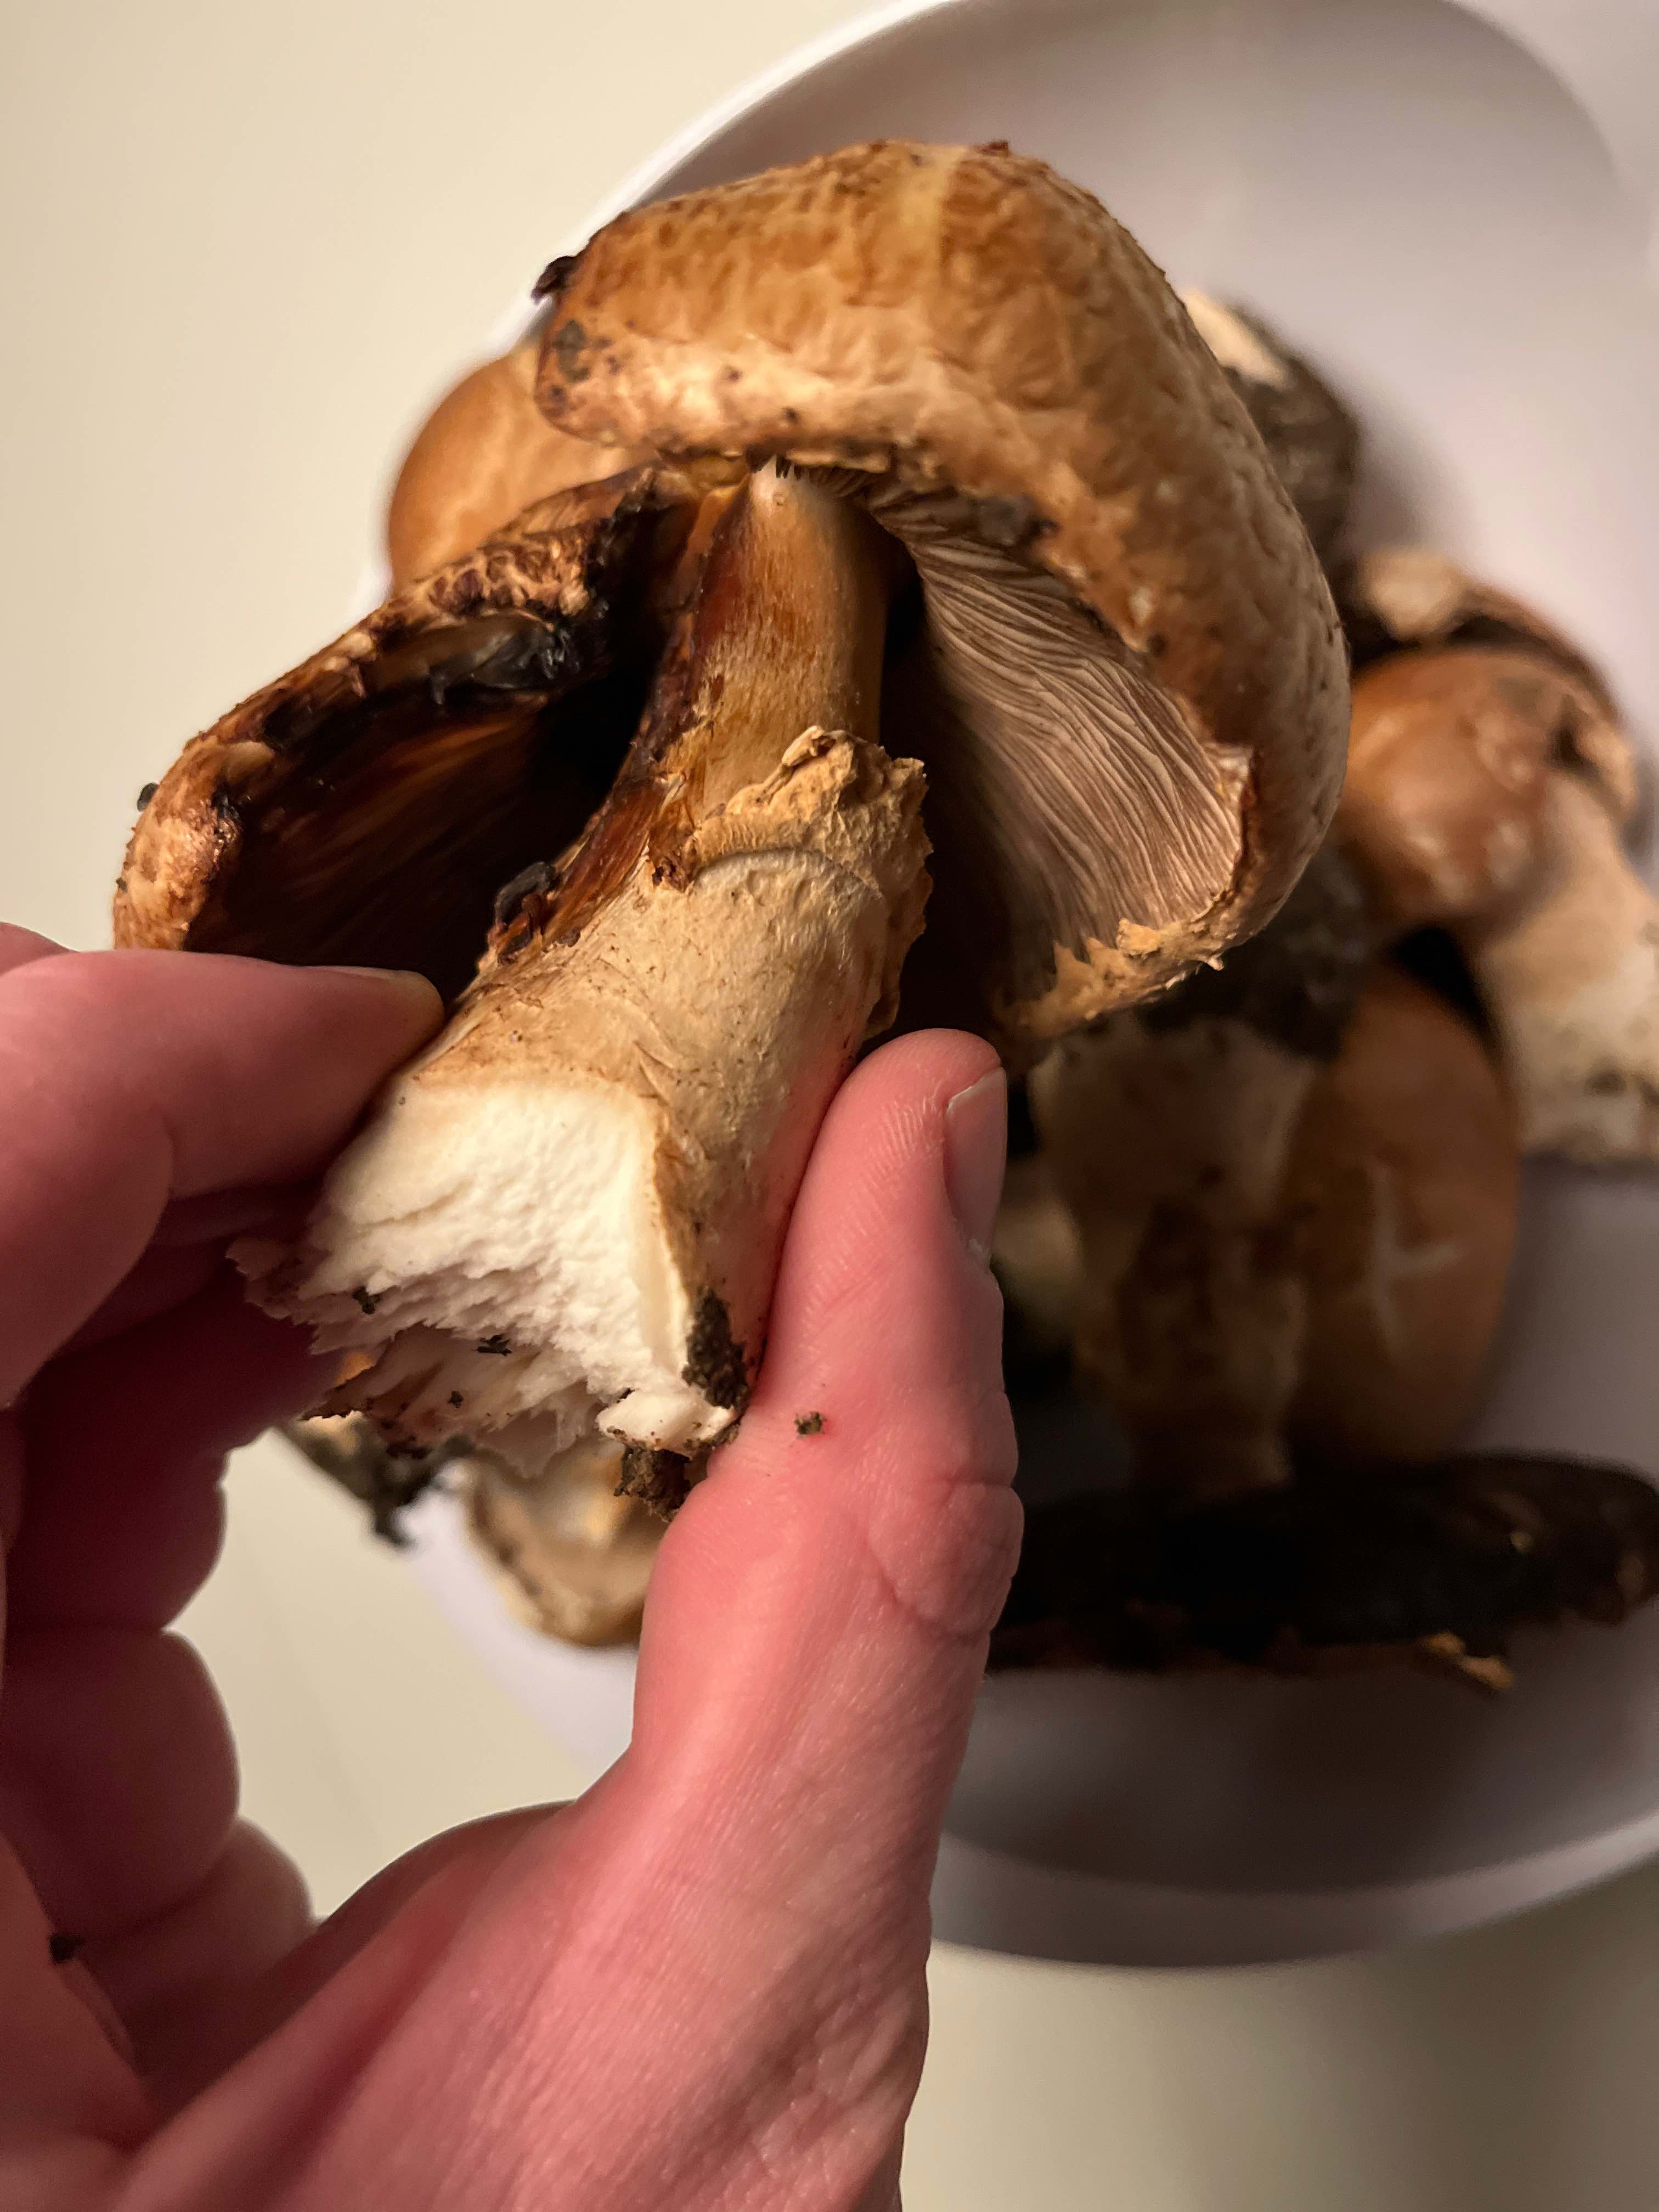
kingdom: Fungi
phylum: Basidiomycota
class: Agaricomycetes
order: Agaricales
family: Agaricaceae
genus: Agaricus
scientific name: Agaricus augustus
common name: prægtig champignon
